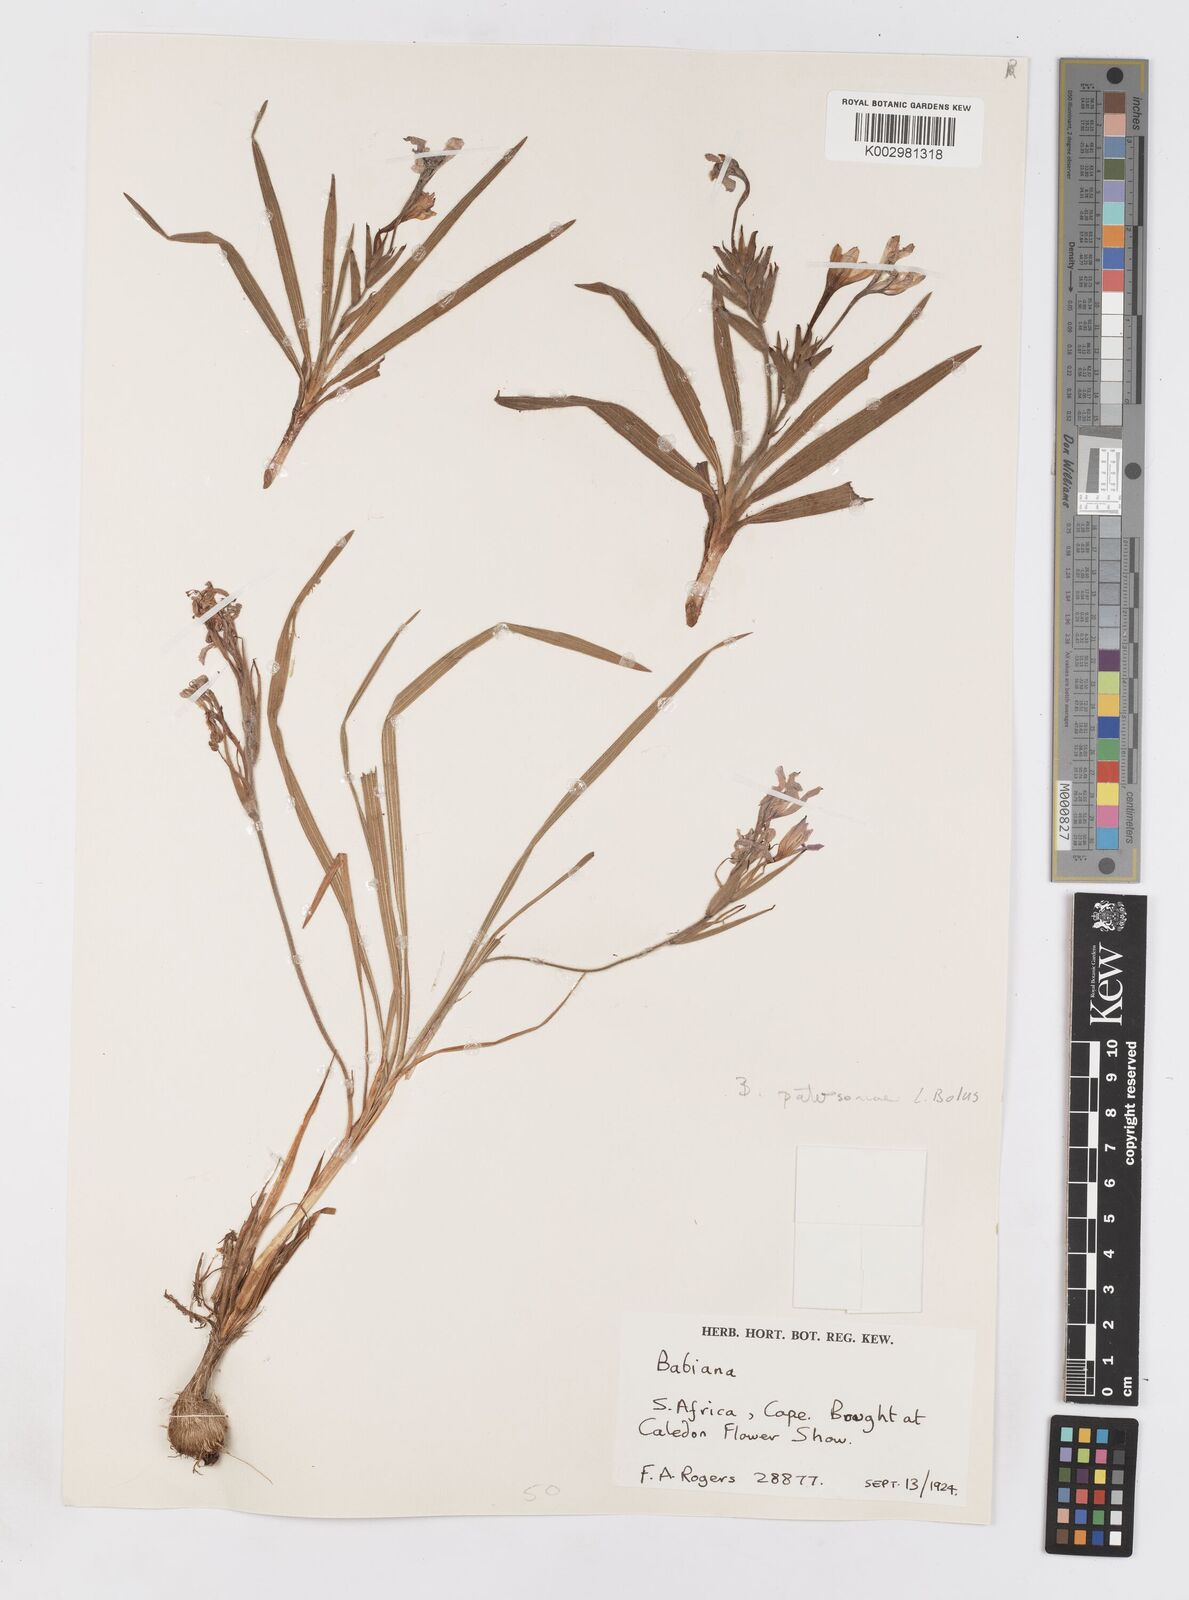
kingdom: Plantae
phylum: Tracheophyta
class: Liliopsida
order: Asparagales
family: Iridaceae
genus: Babiana
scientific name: Babiana patersoniae
